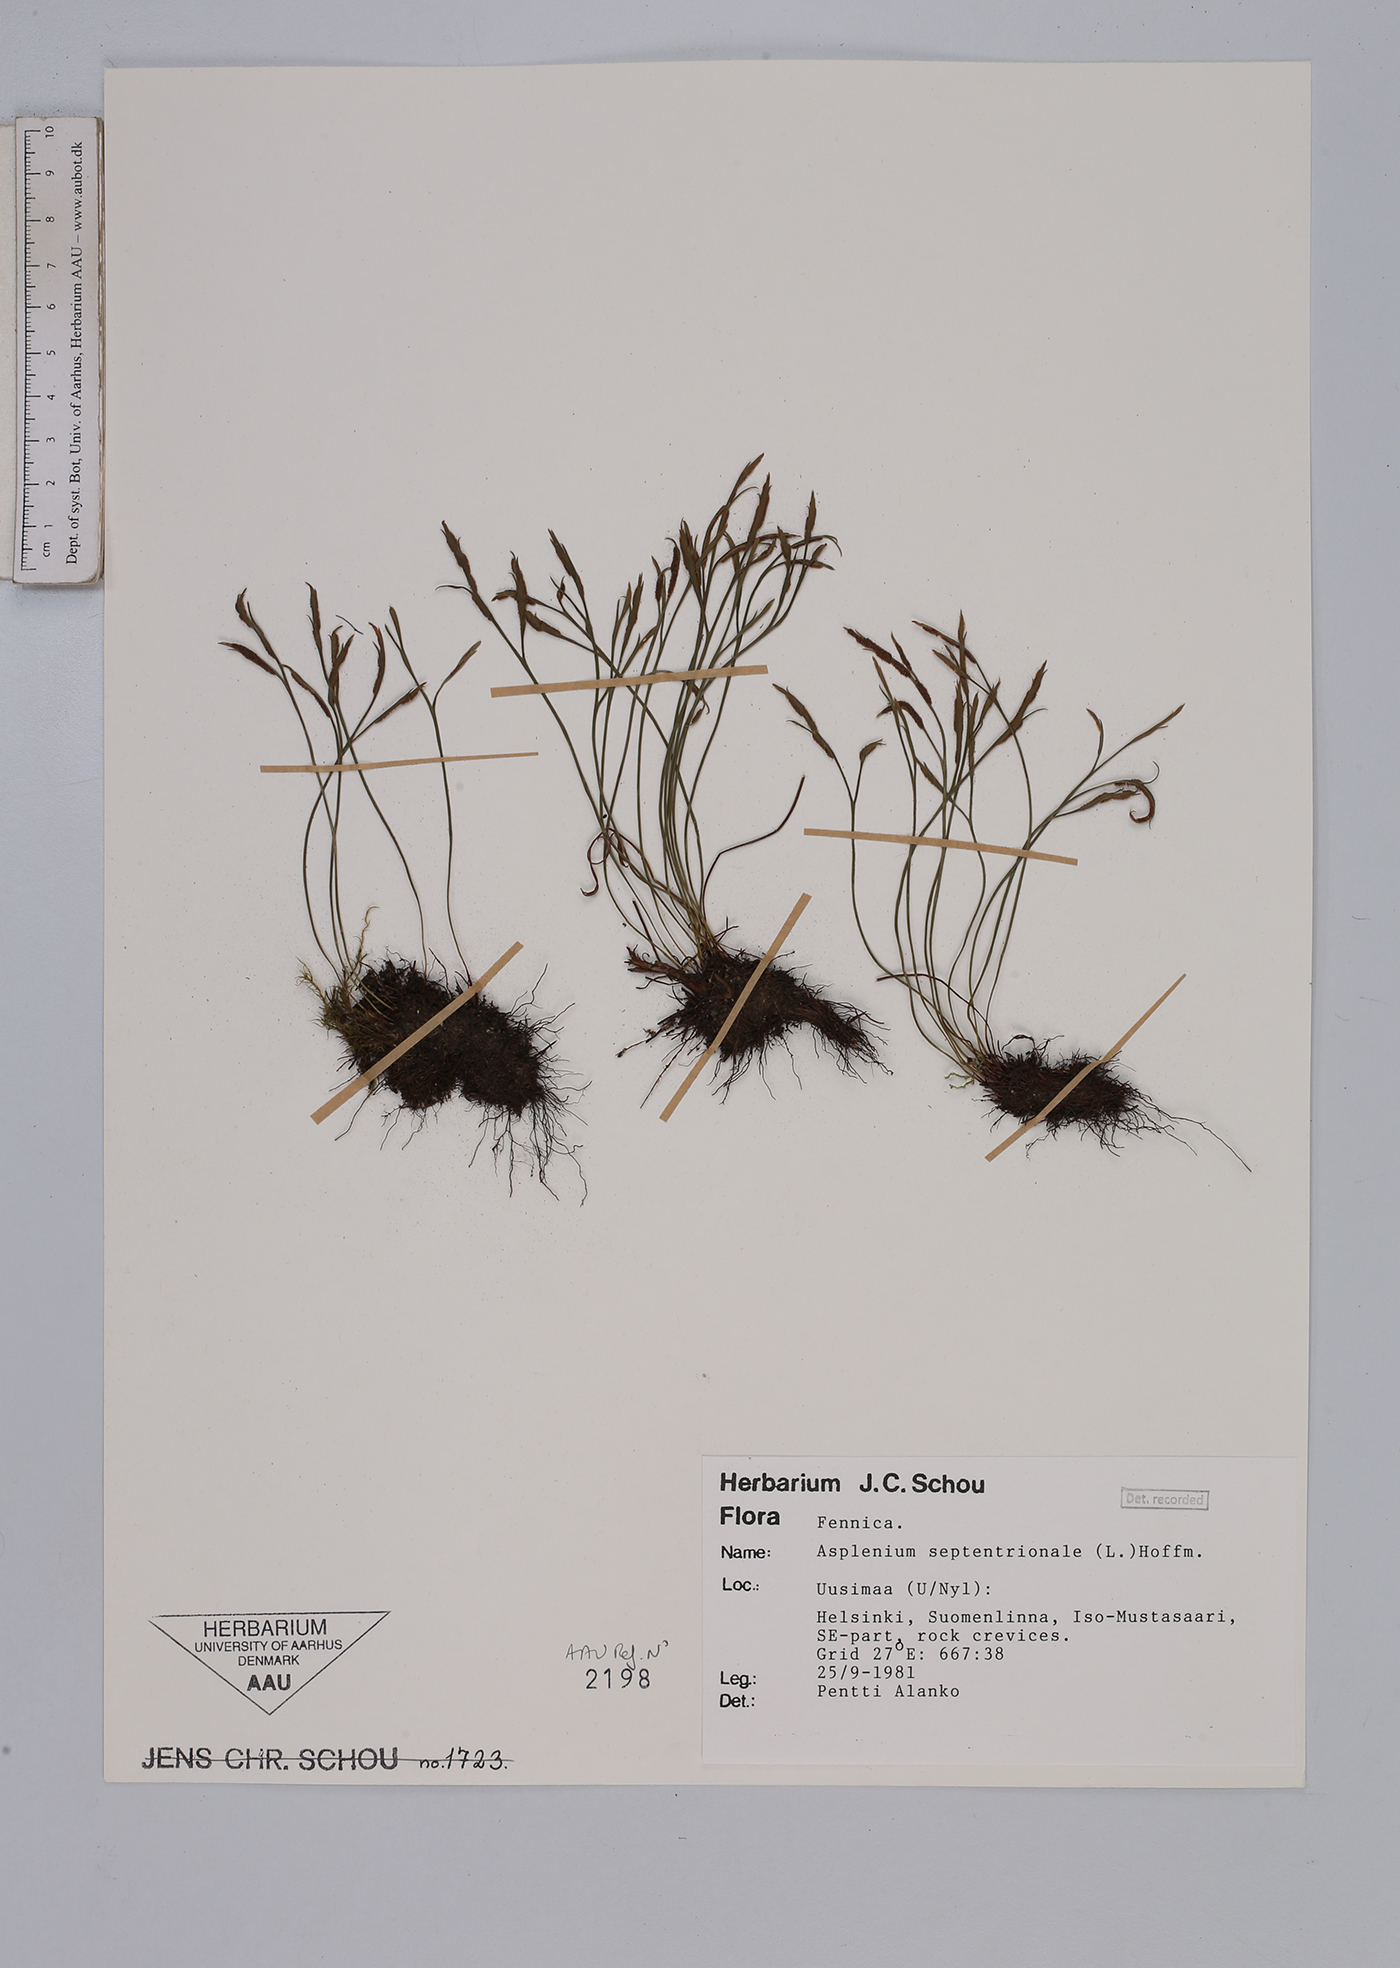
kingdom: Plantae
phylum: Tracheophyta
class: Polypodiopsida
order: Polypodiales
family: Aspleniaceae
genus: Asplenium
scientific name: Asplenium septentrionale
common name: Forked spleenwort
